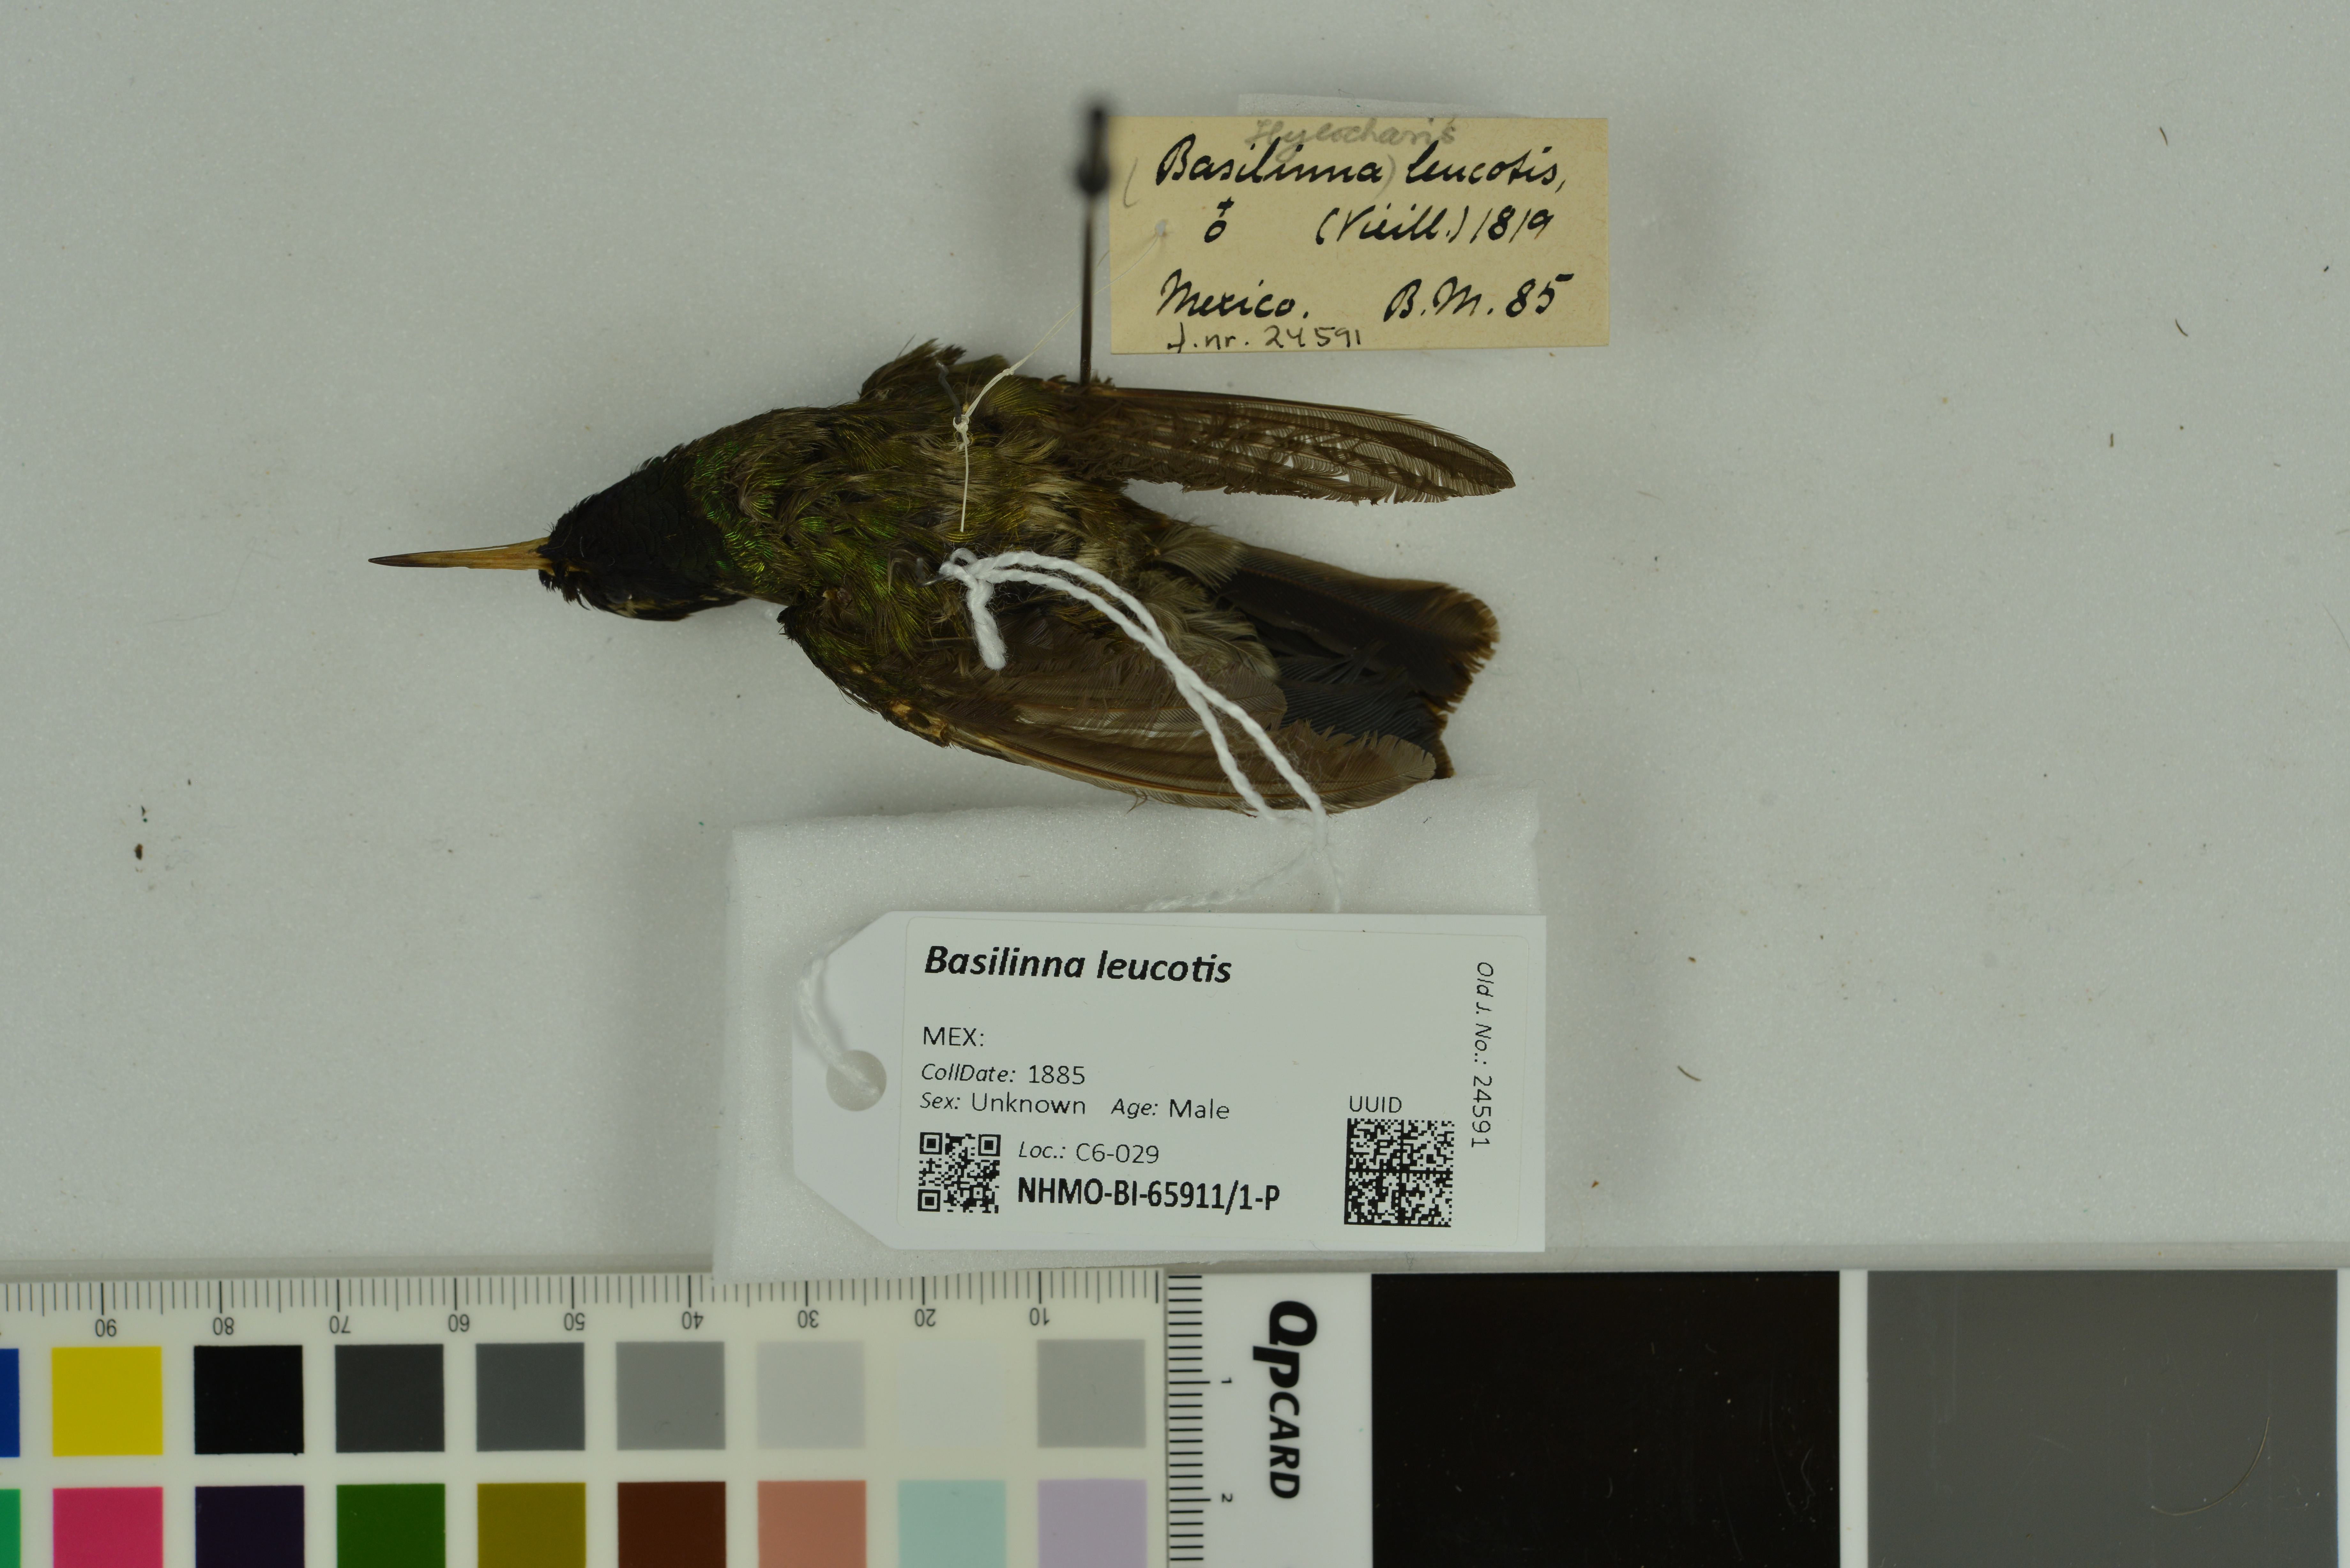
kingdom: Animalia
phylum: Chordata
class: Aves
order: Apodiformes
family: Trochilidae
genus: Basilinna
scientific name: Basilinna leucotis
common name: White-eared hummingbird
